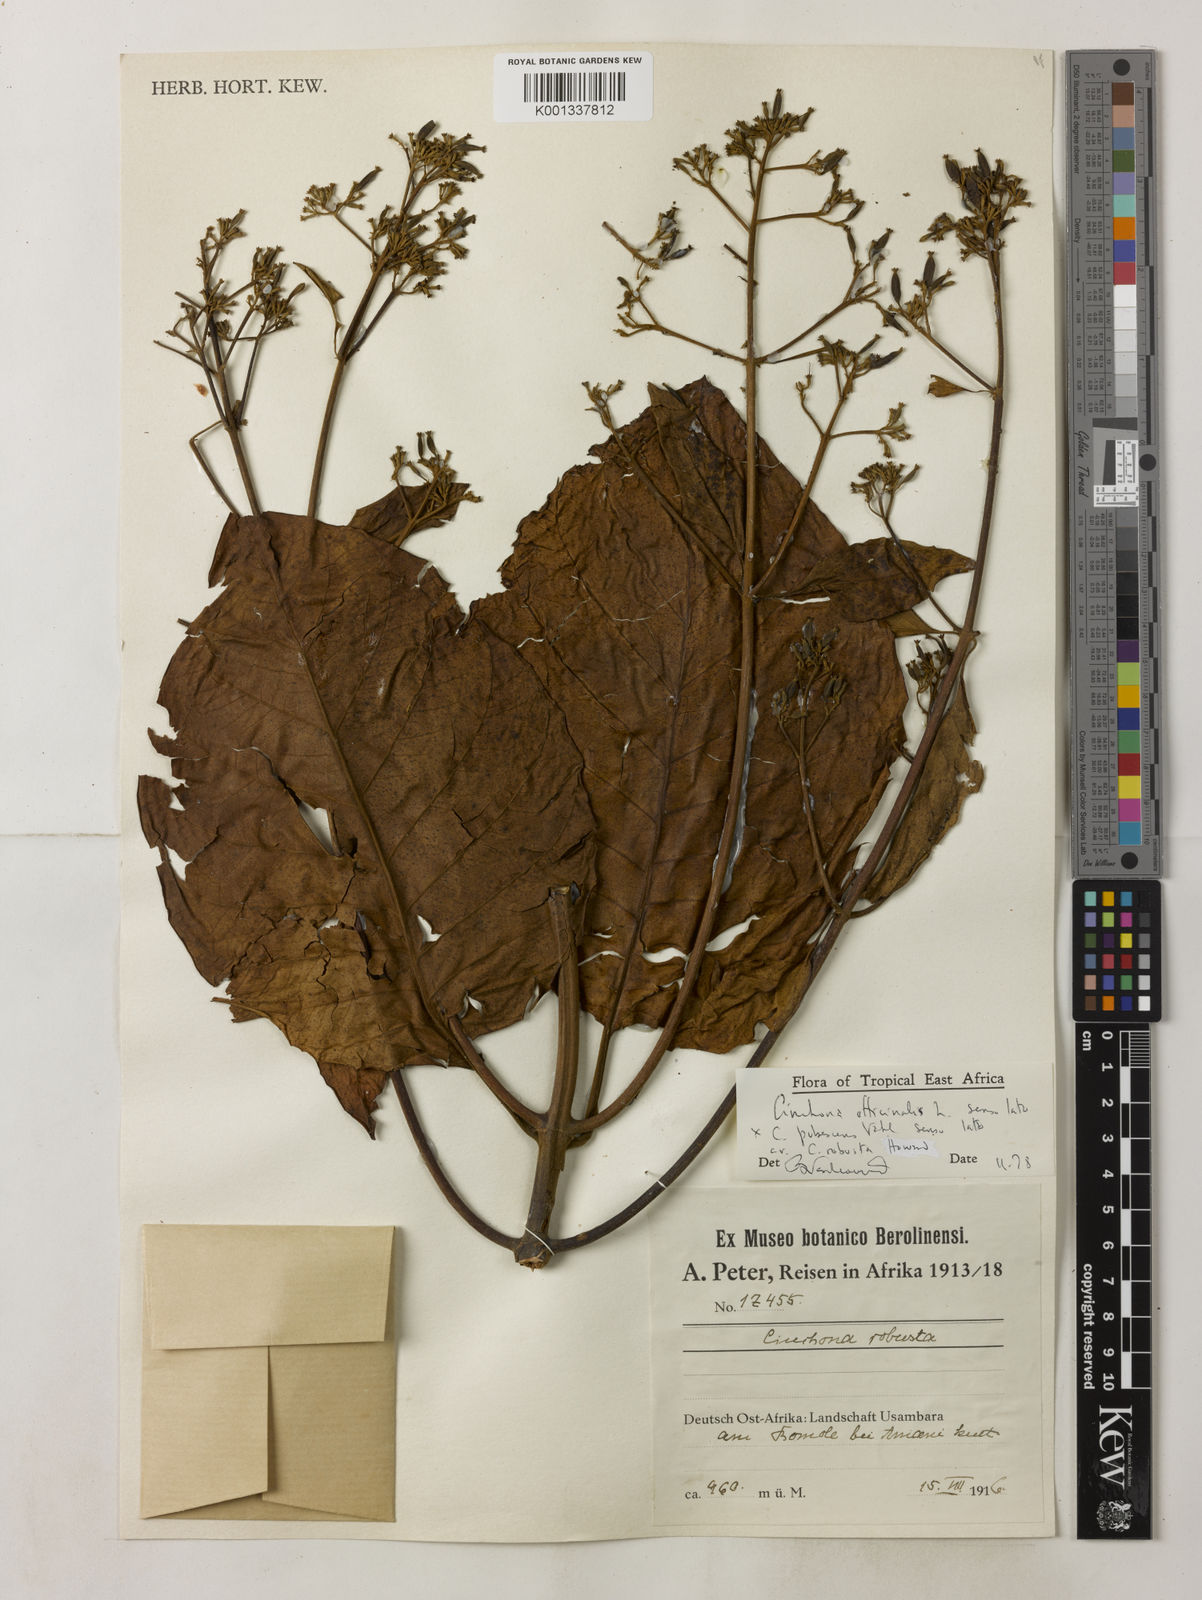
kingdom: Plantae
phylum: Tracheophyta
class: Magnoliopsida
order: Gentianales
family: Rubiaceae
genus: Cinchona
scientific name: Cinchona
